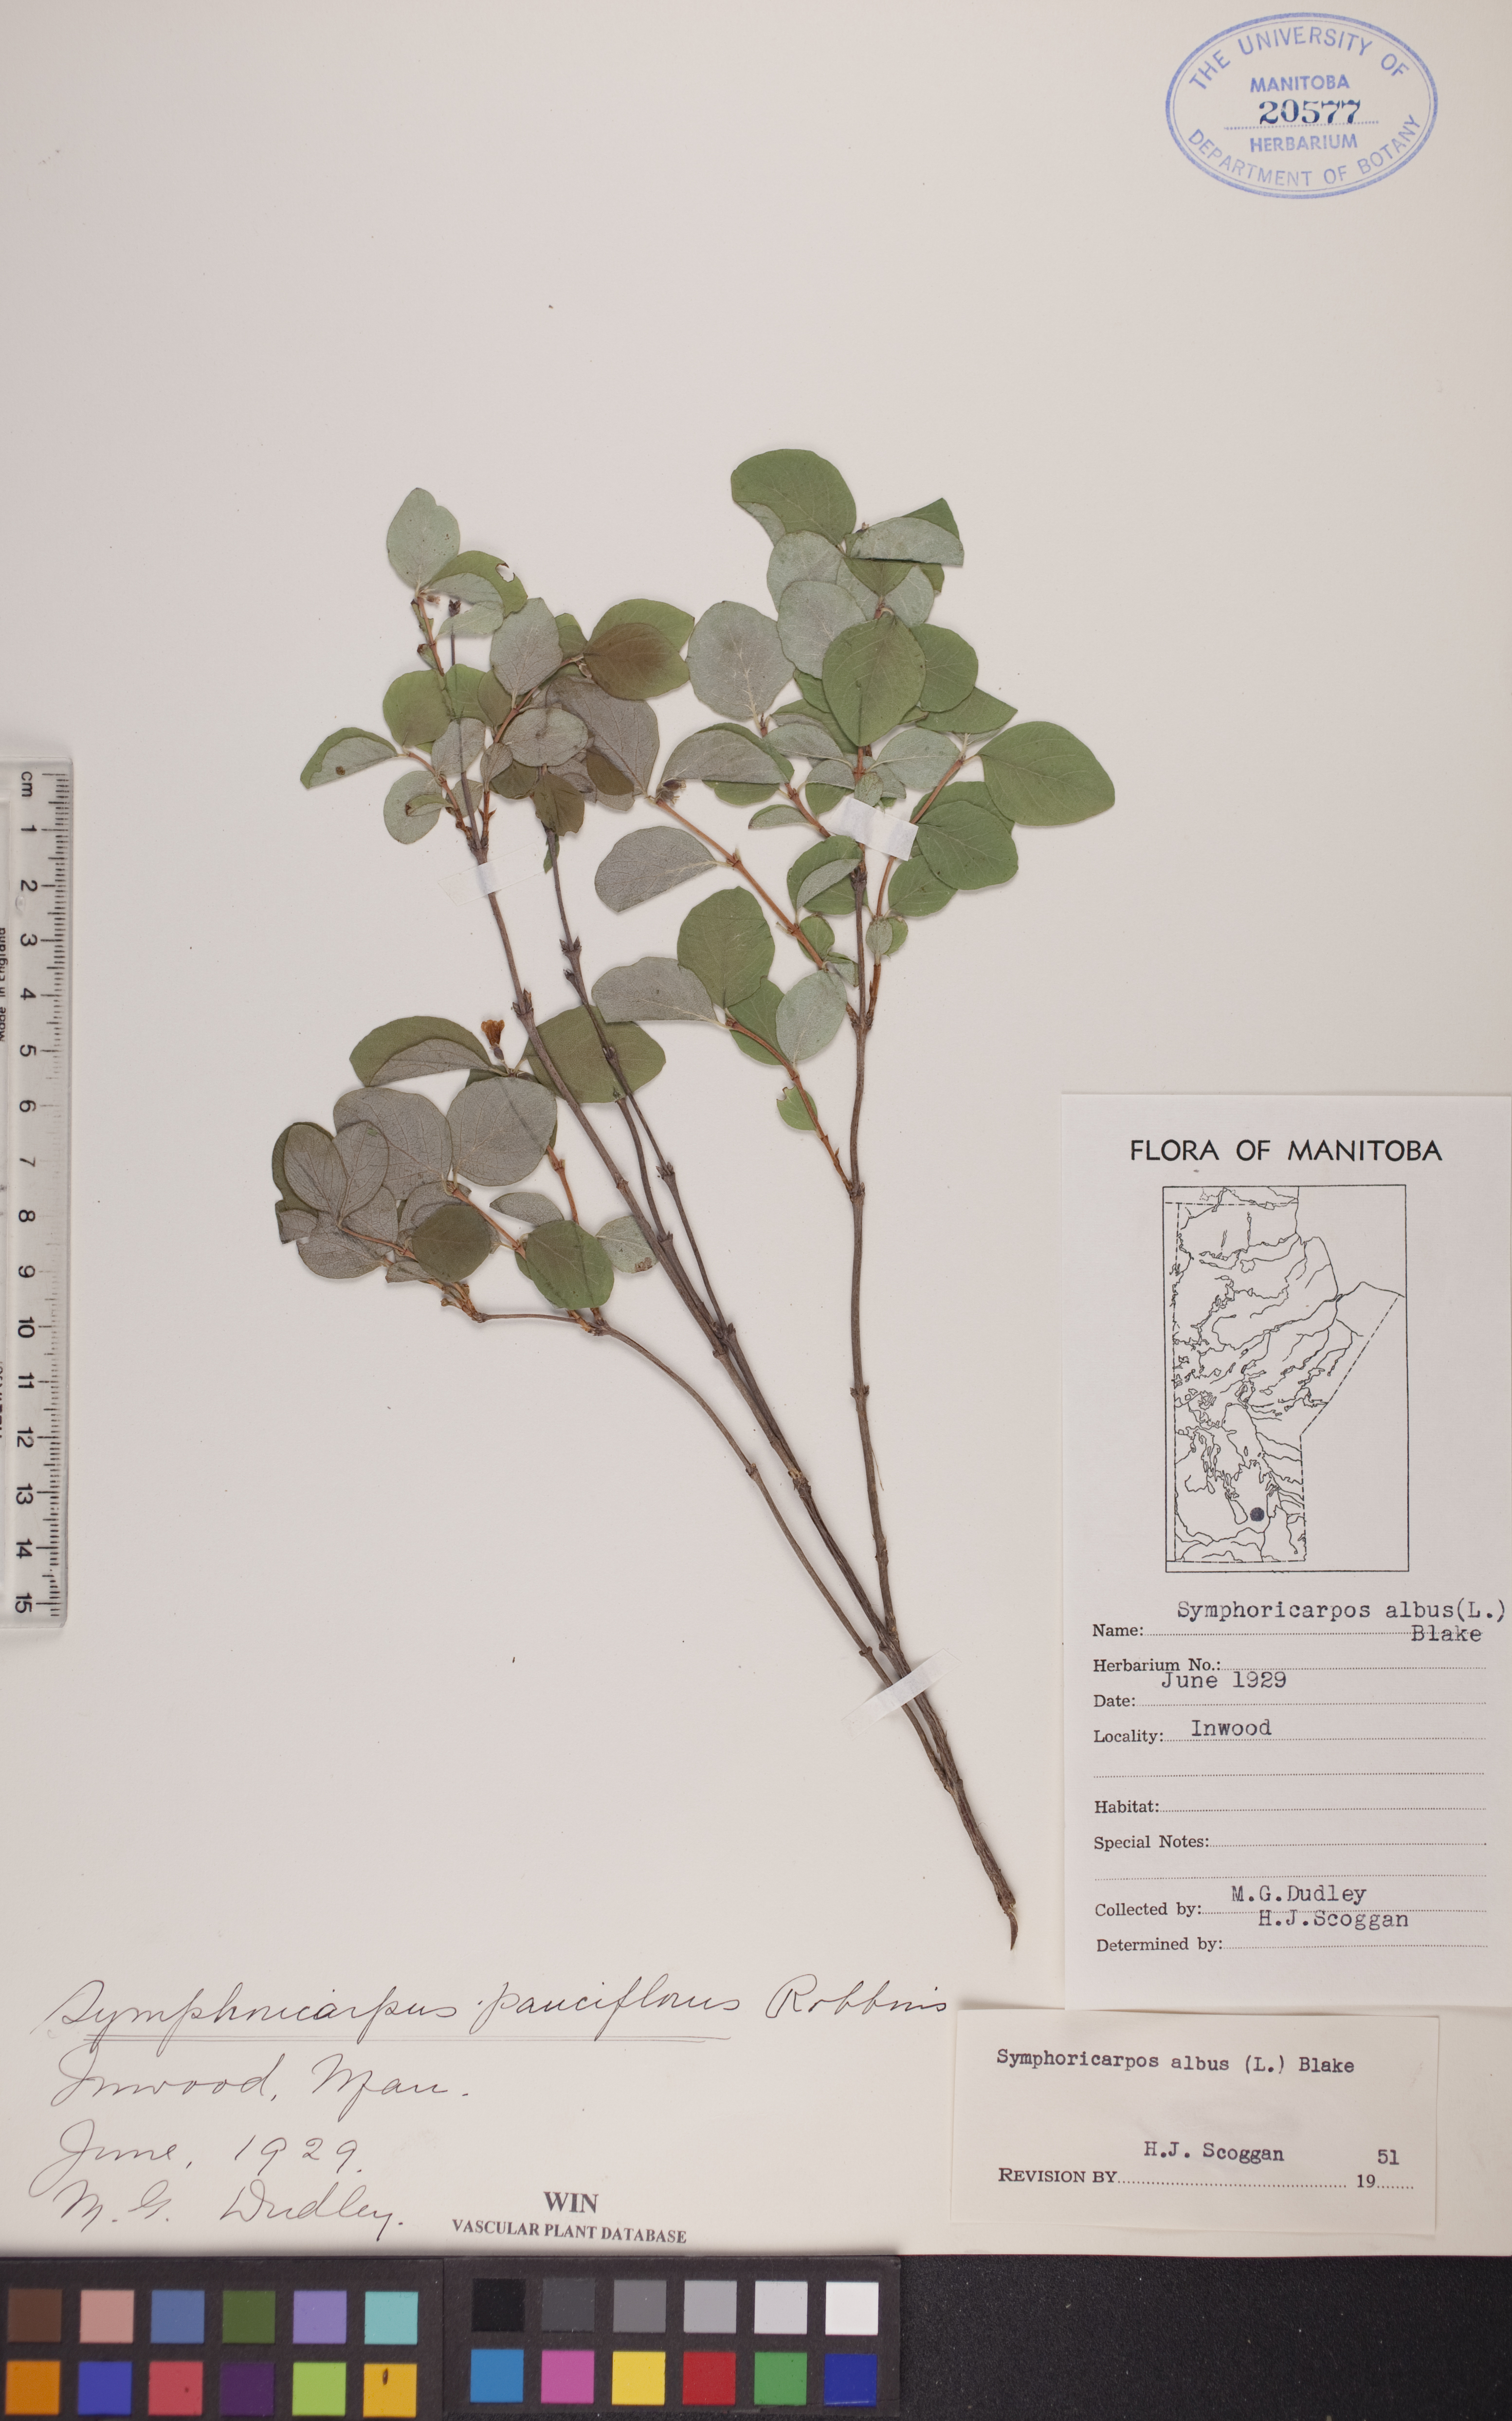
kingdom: Plantae
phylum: Tracheophyta
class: Magnoliopsida
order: Dipsacales
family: Caprifoliaceae
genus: Symphoricarpos
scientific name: Symphoricarpos albus
